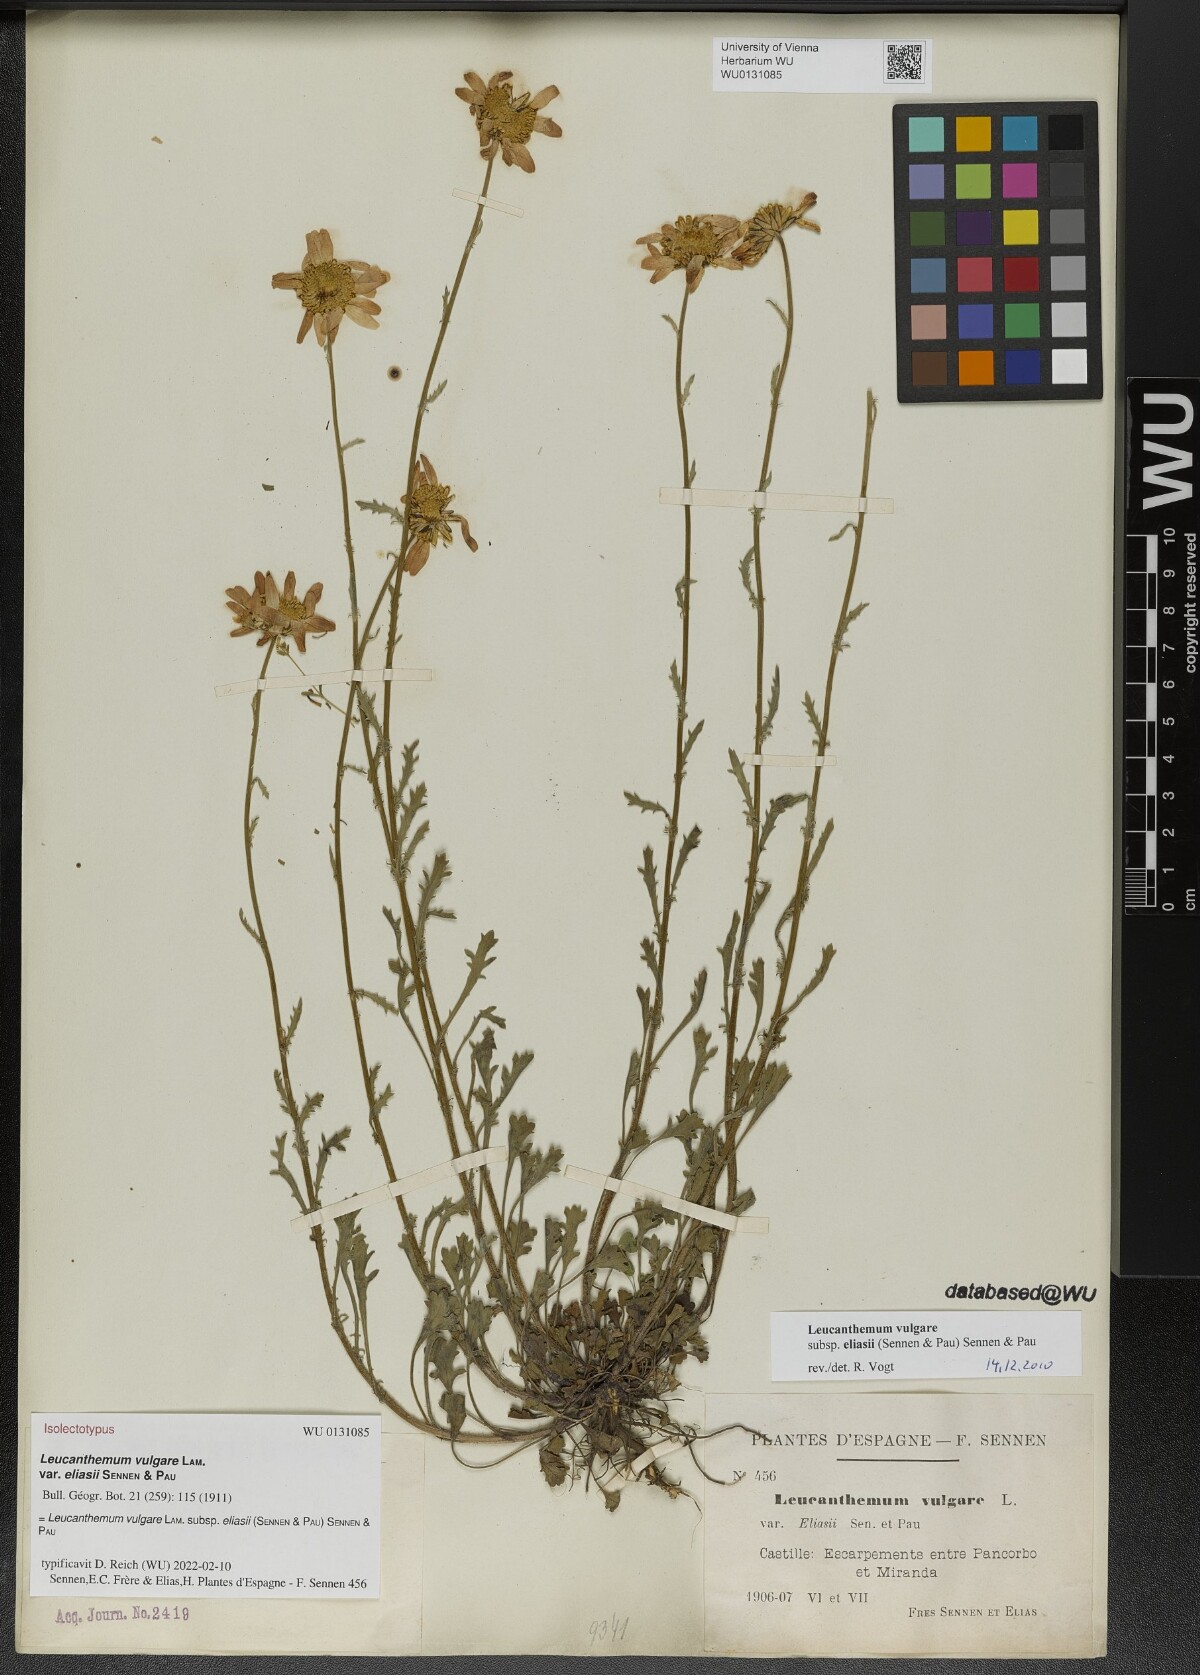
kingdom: Plantae
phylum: Tracheophyta
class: Magnoliopsida
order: Asterales
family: Asteraceae
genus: Leucanthemum
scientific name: Leucanthemum eliasii
